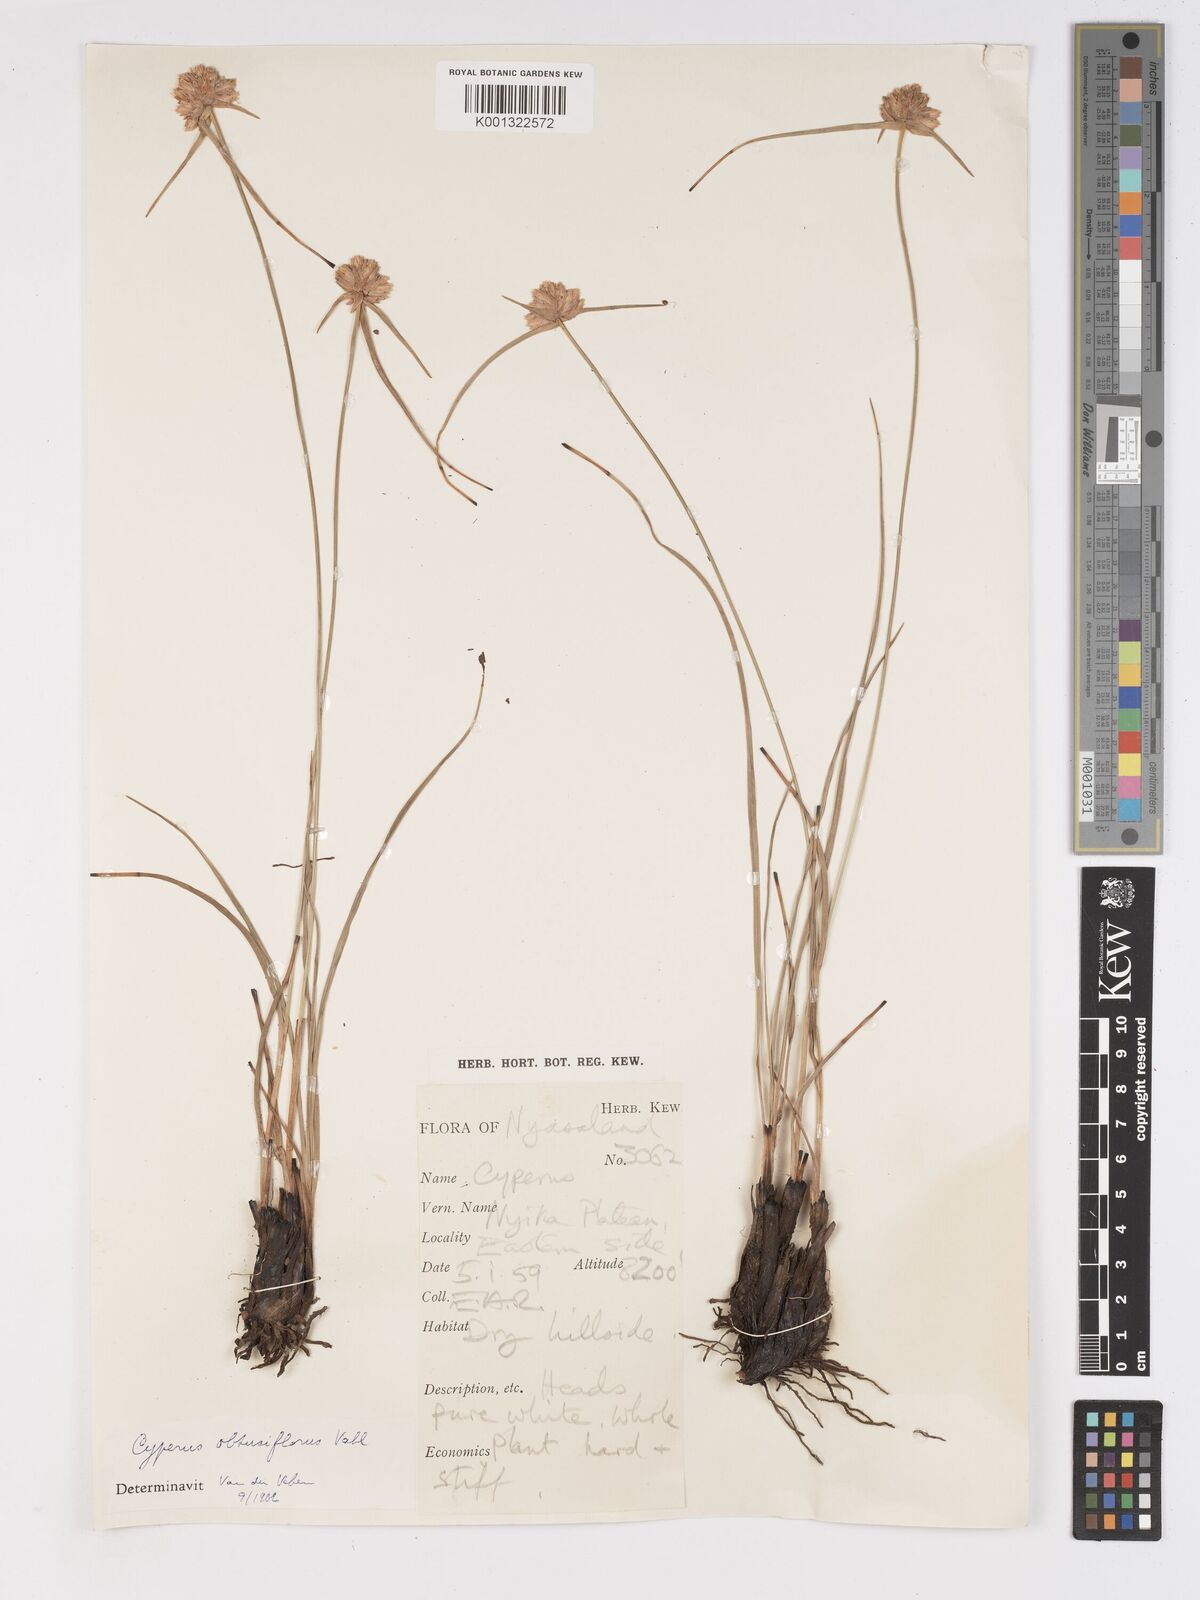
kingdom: Plantae
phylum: Tracheophyta
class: Liliopsida
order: Poales
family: Cyperaceae
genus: Cyperus
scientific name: Cyperus niveus
